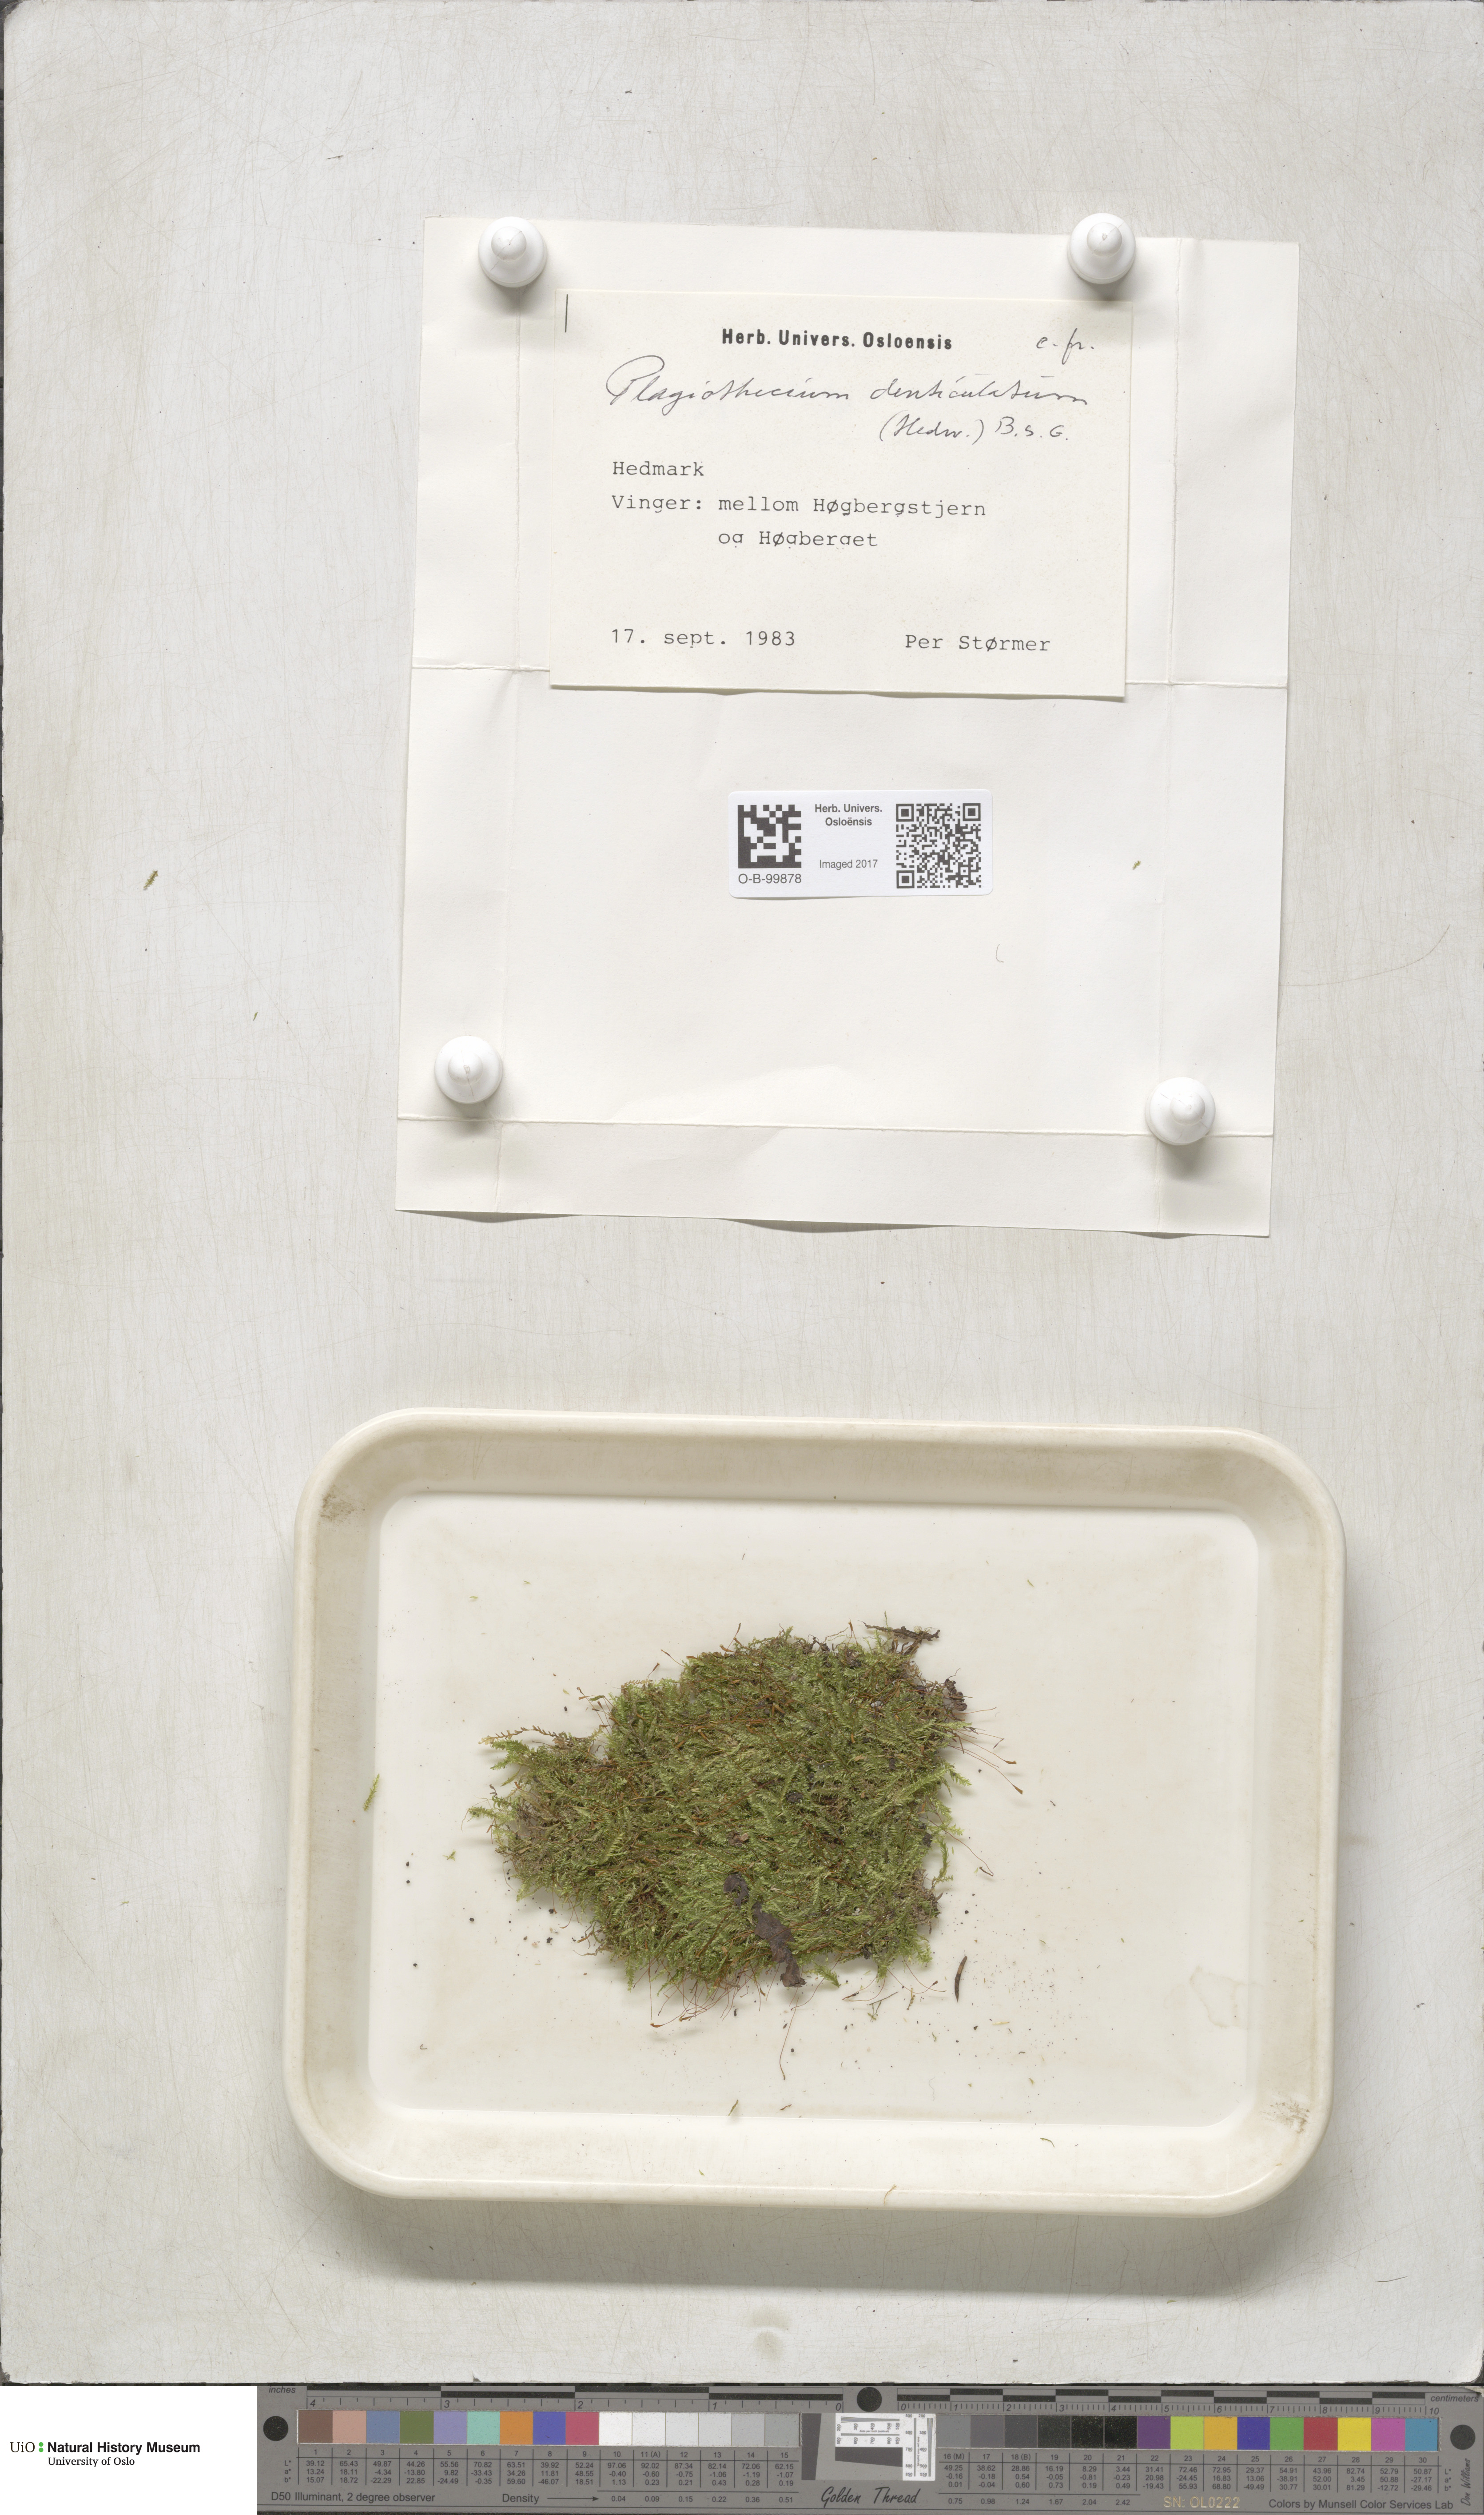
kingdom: Plantae
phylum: Bryophyta
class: Bryopsida
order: Hypnales
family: Plagiotheciaceae
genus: Plagiothecium
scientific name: Plagiothecium denticulatum
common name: Dented silk moss
